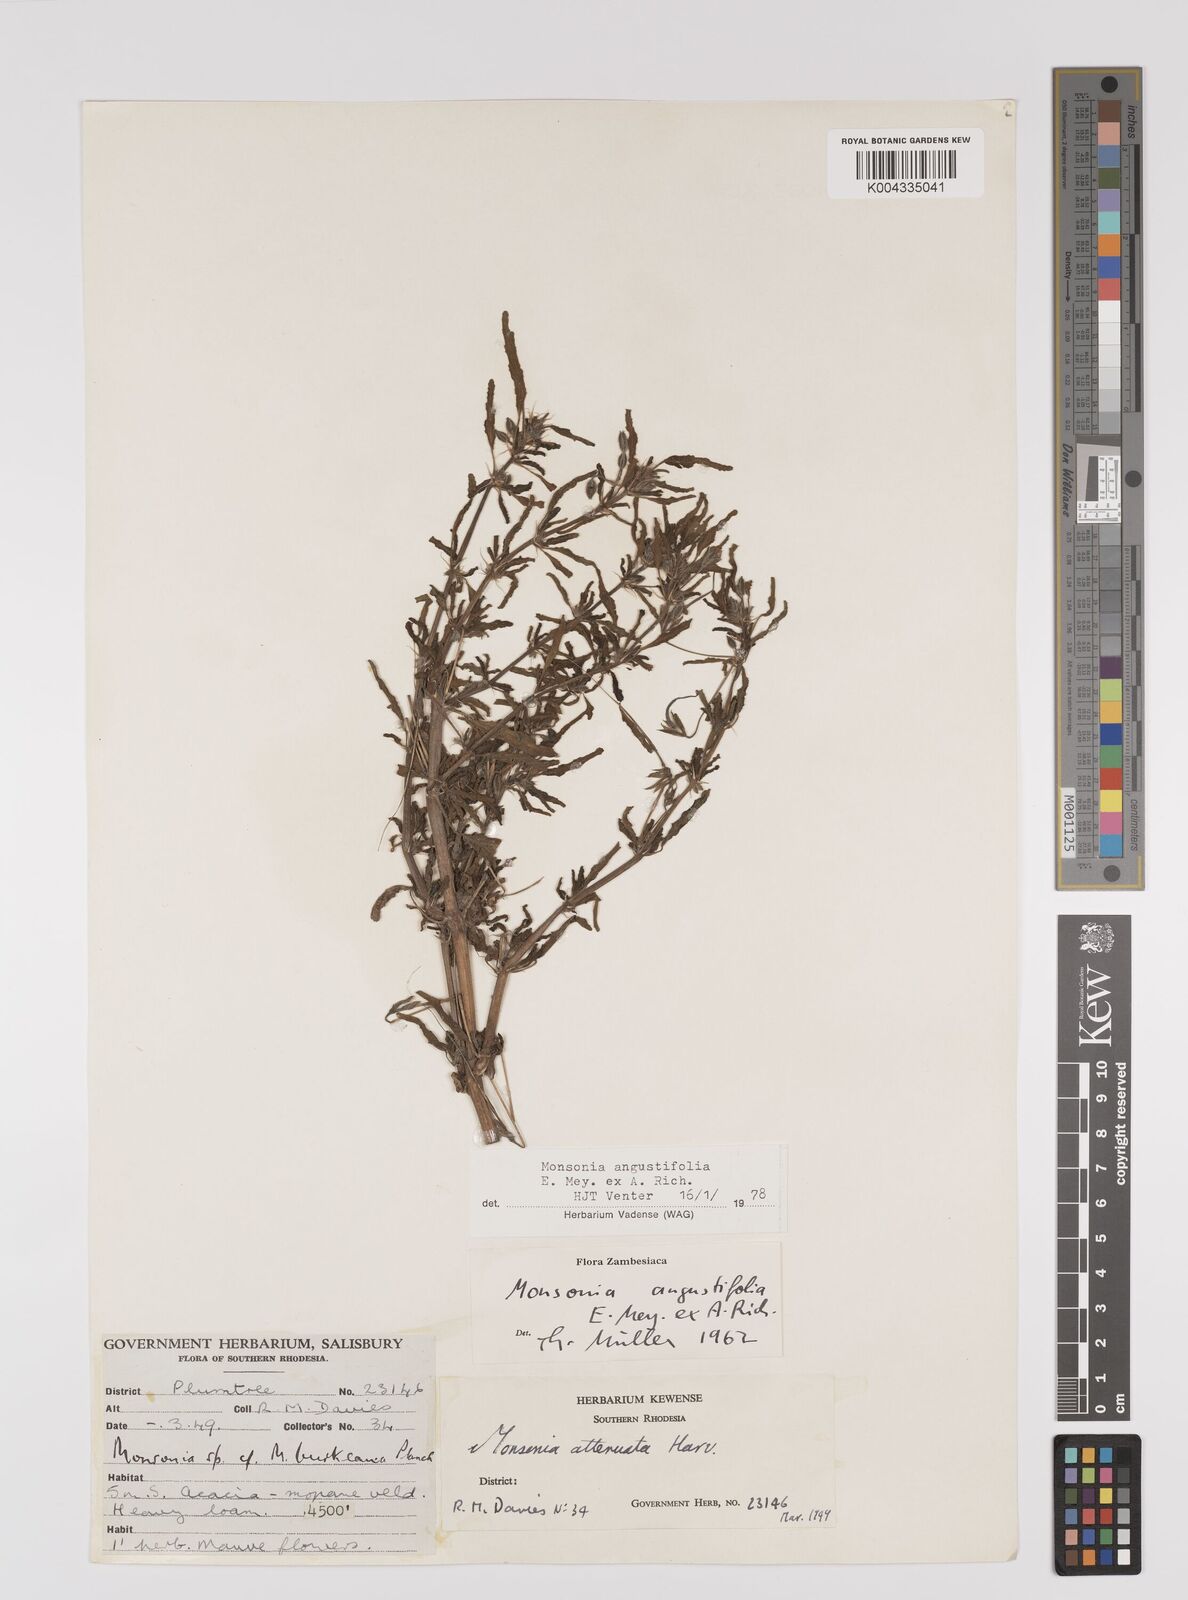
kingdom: Plantae
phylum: Tracheophyta
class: Magnoliopsida
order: Geraniales
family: Geraniaceae
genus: Monsonia
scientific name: Monsonia angustifolia
